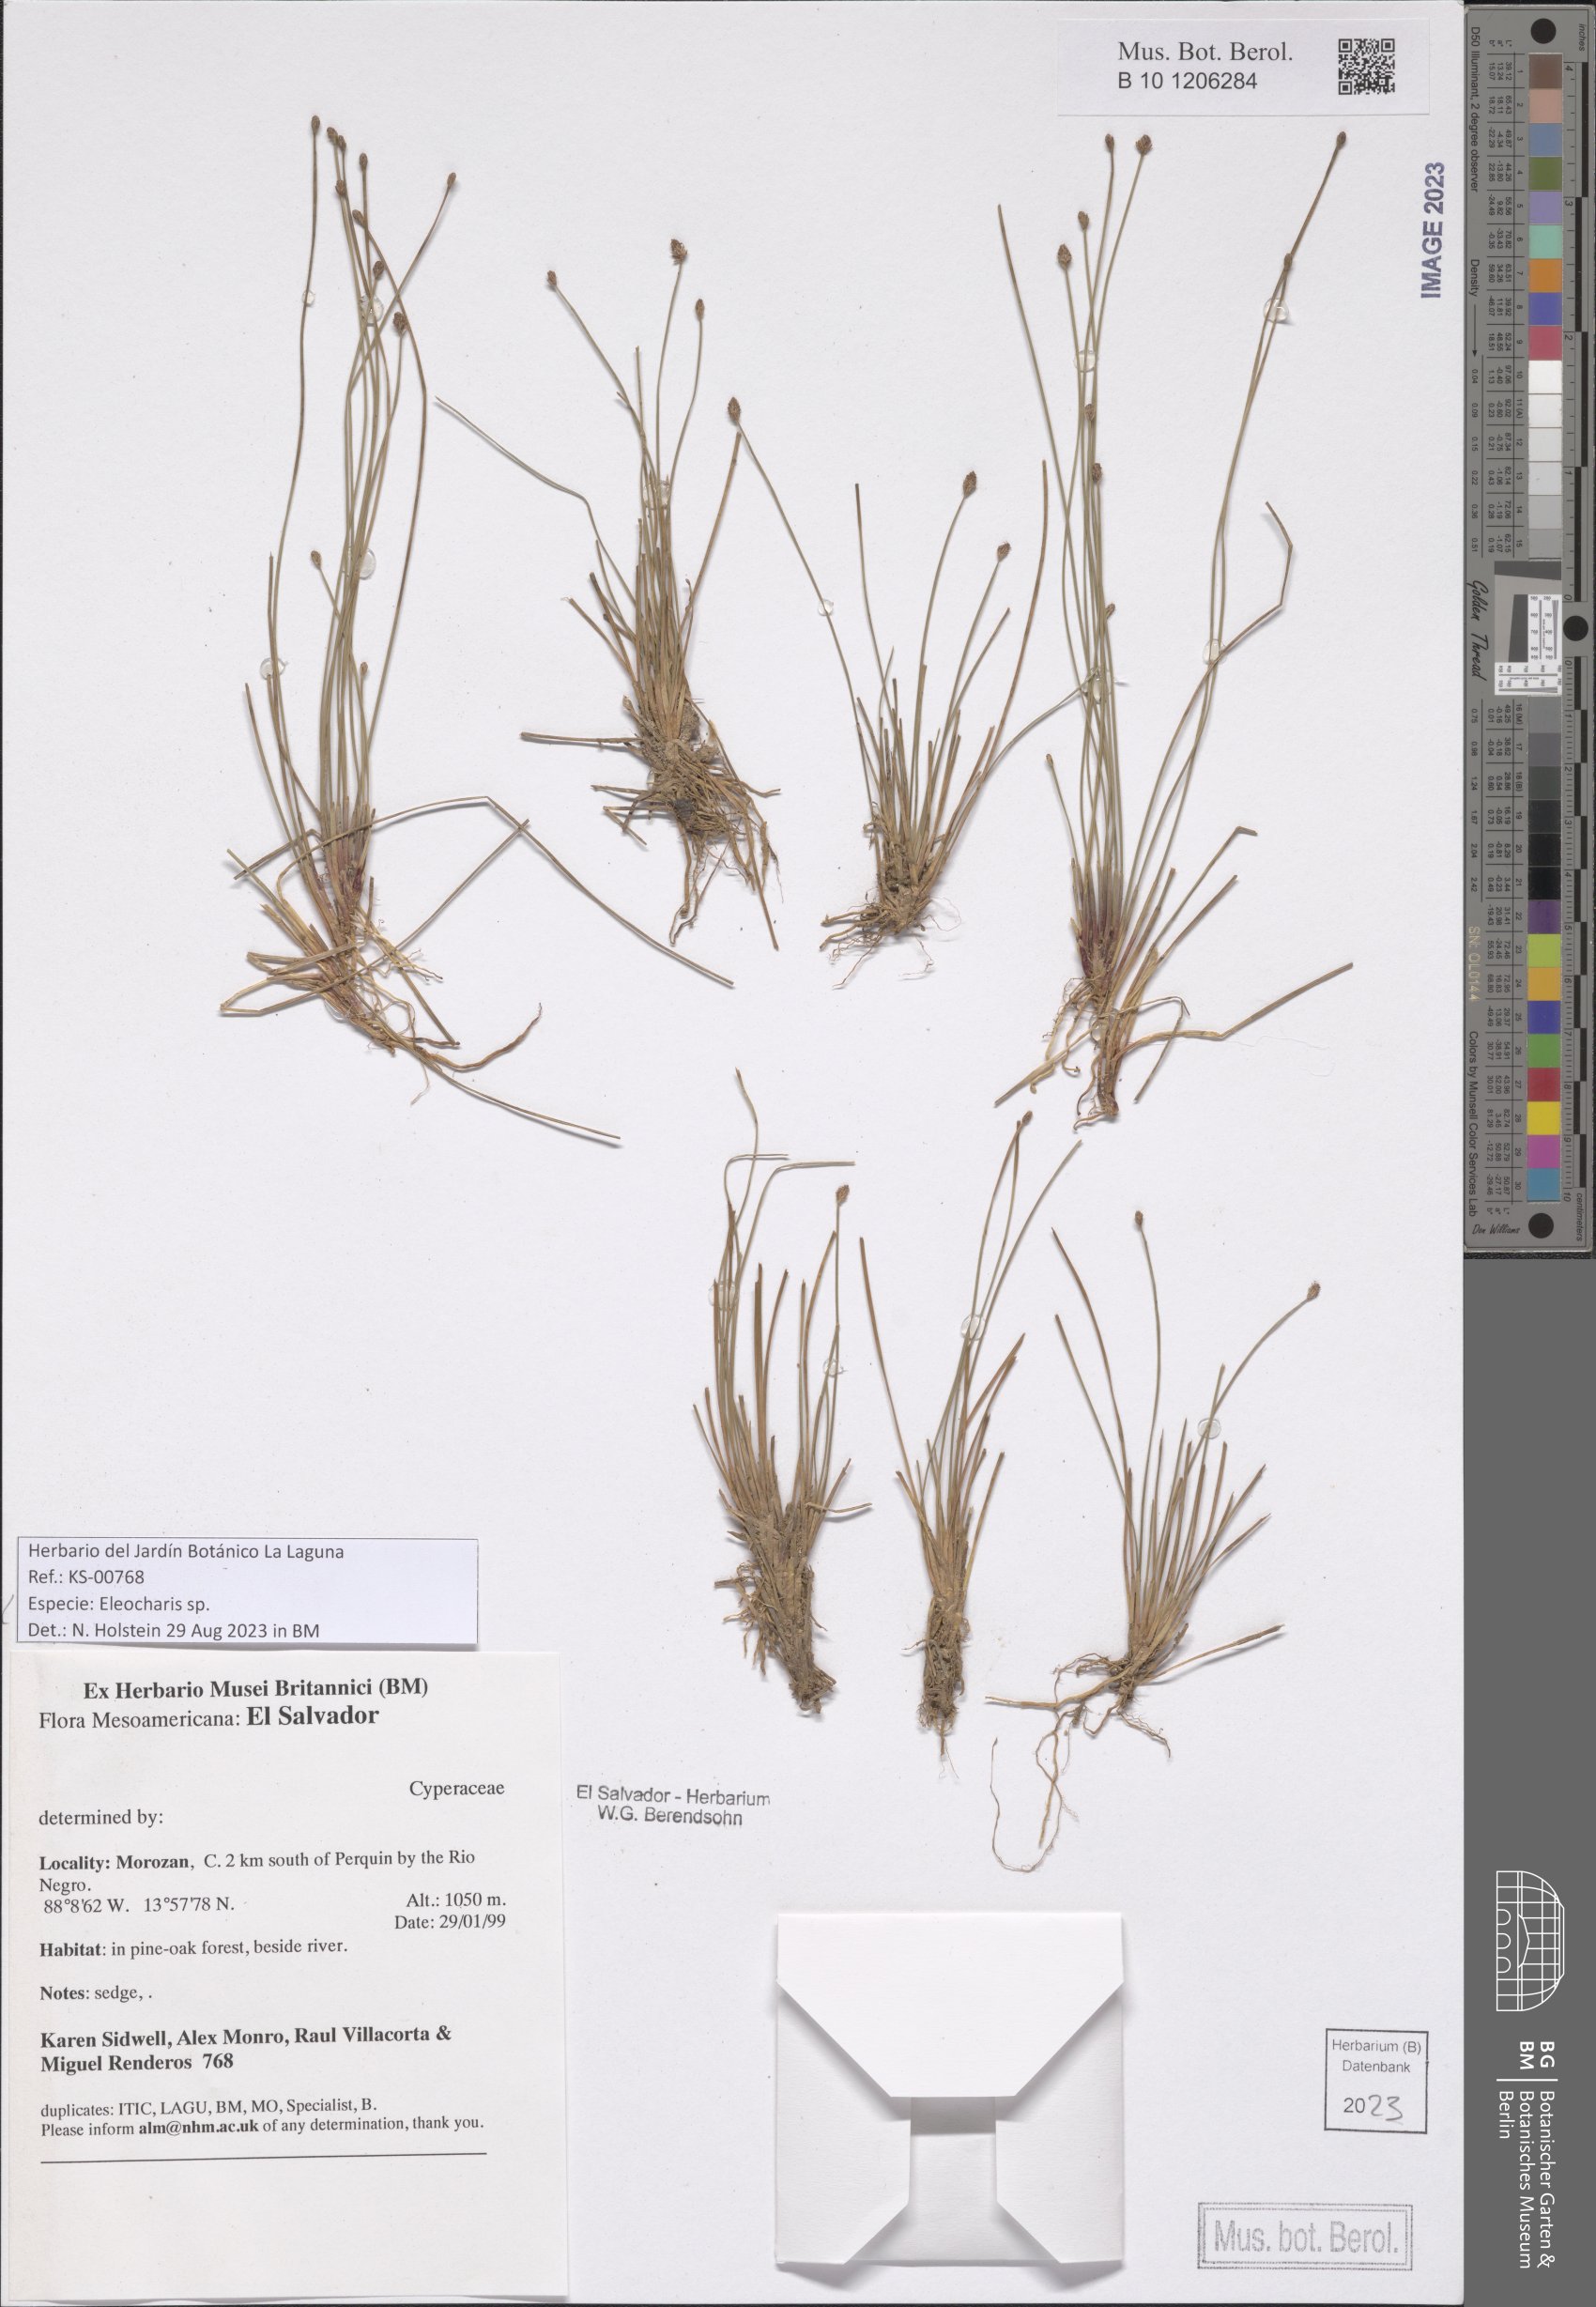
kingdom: Plantae
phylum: Tracheophyta
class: Liliopsida
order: Poales
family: Cyperaceae
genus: Eleocharis
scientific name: Eleocharis
